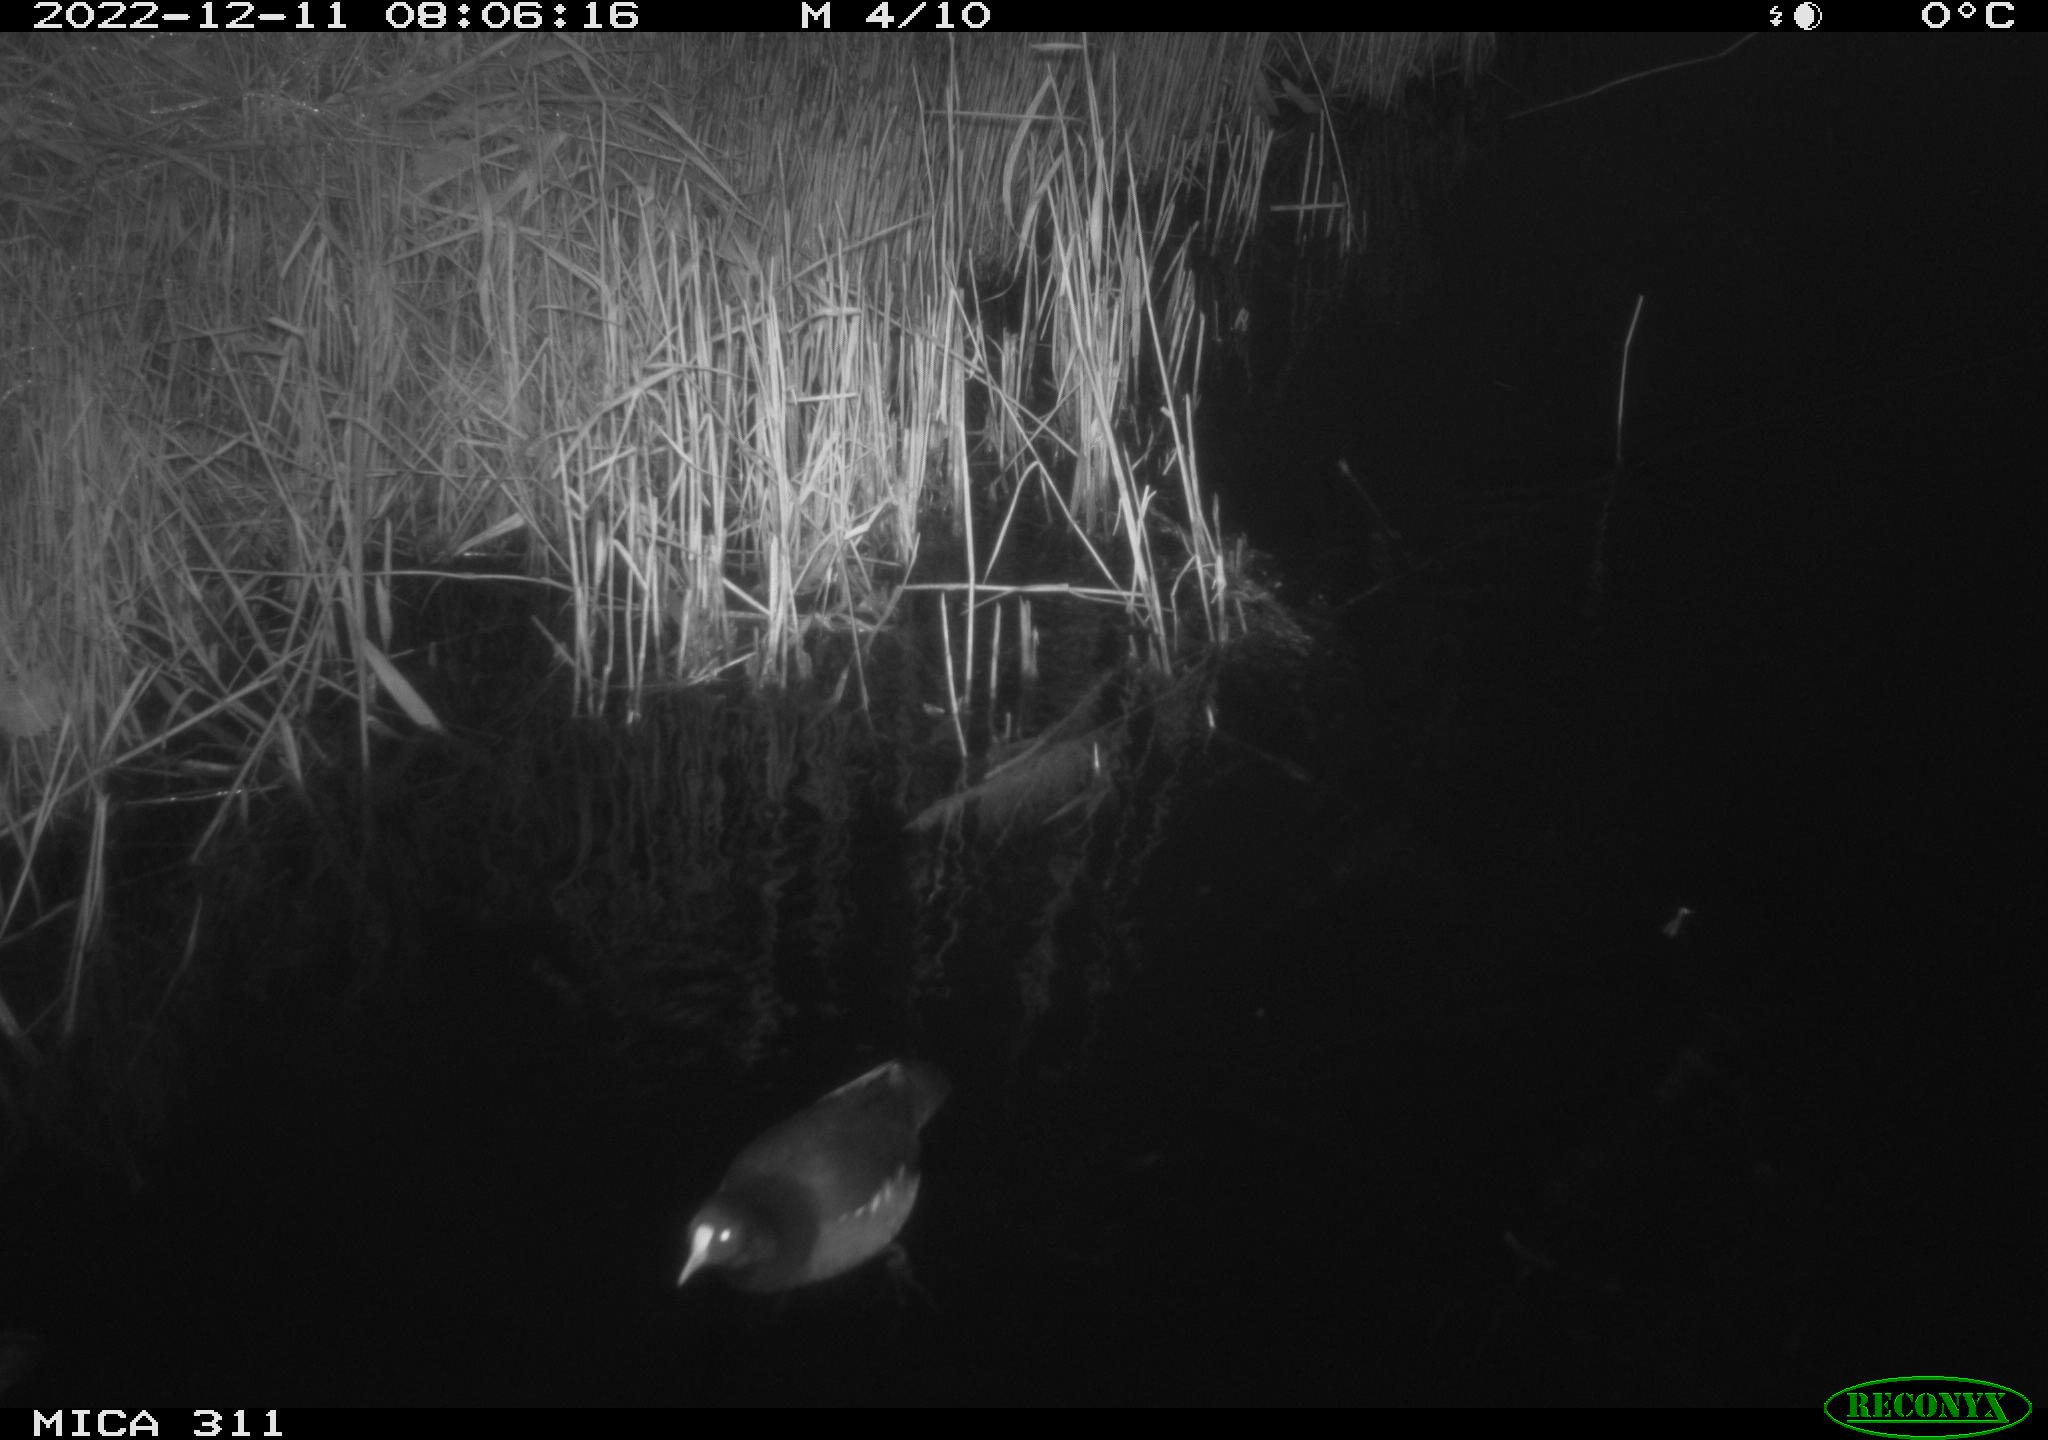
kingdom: Animalia
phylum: Chordata
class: Aves
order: Gruiformes
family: Rallidae
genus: Gallinula
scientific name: Gallinula chloropus
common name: Common moorhen
